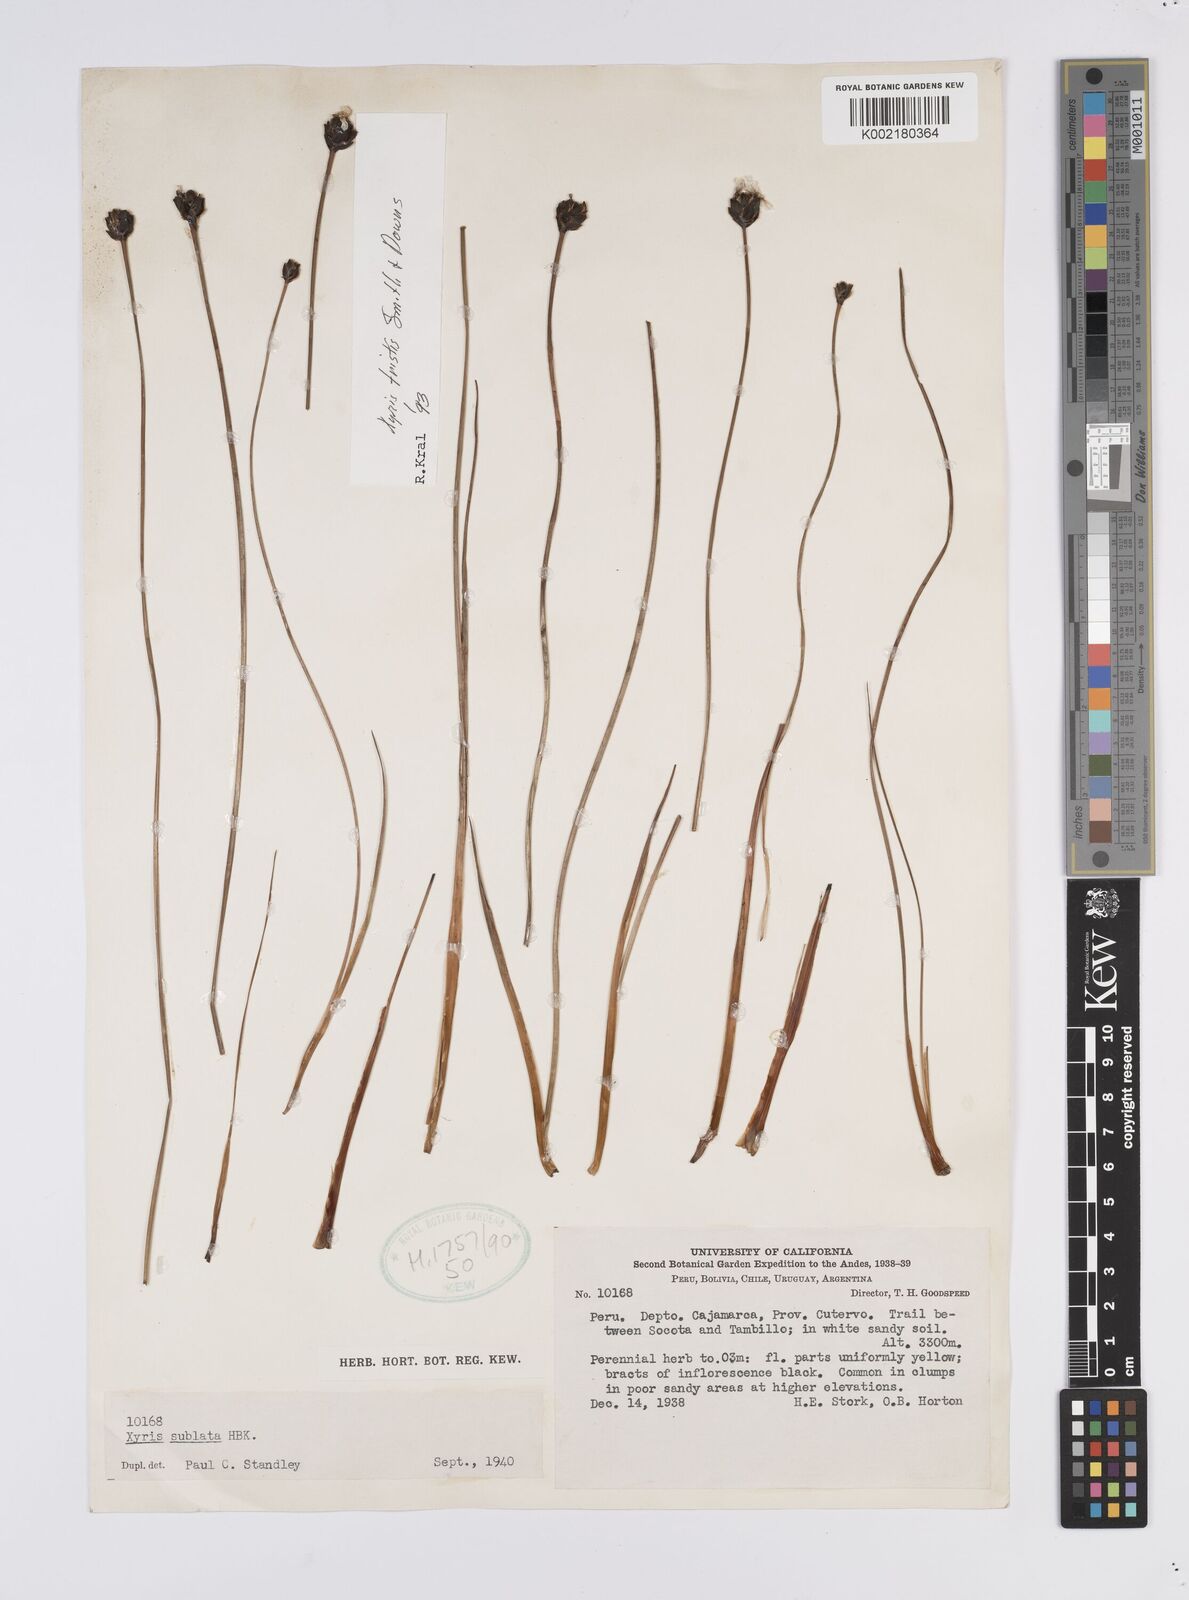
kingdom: Plantae
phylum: Tracheophyta
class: Liliopsida
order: Poales
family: Xyridaceae
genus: Xyris
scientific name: Xyris tristis
